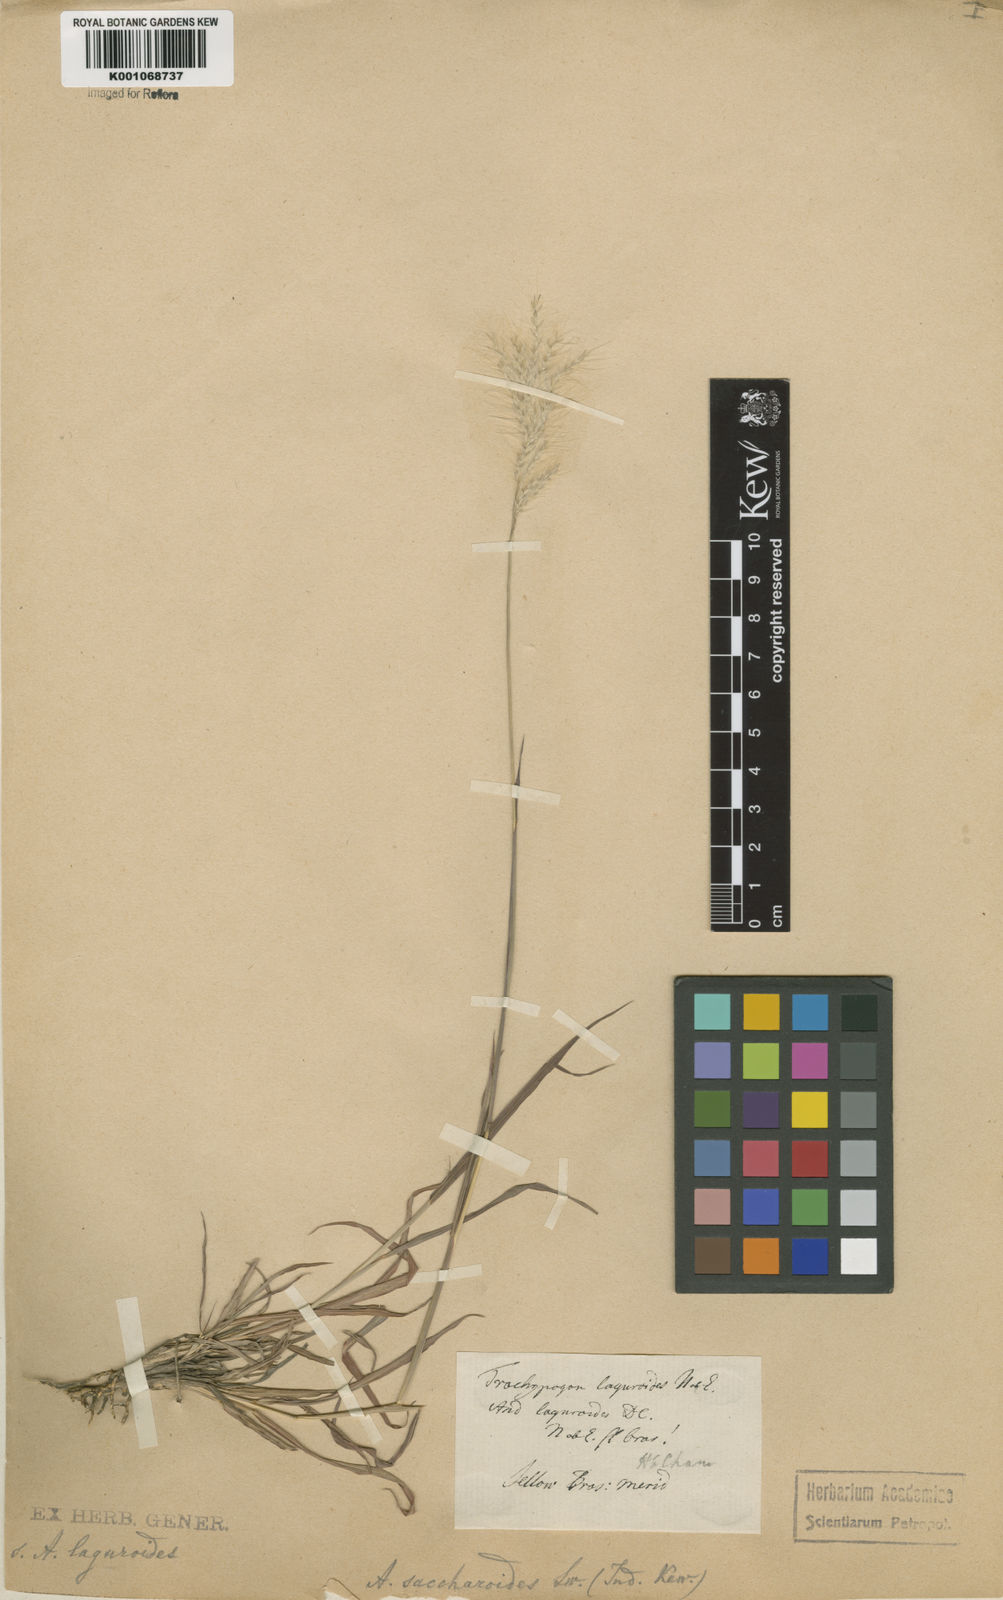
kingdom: Plantae
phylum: Tracheophyta
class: Liliopsida
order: Poales
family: Poaceae
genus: Bothriochloa
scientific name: Bothriochloa laguroides
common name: Silver bluestem
